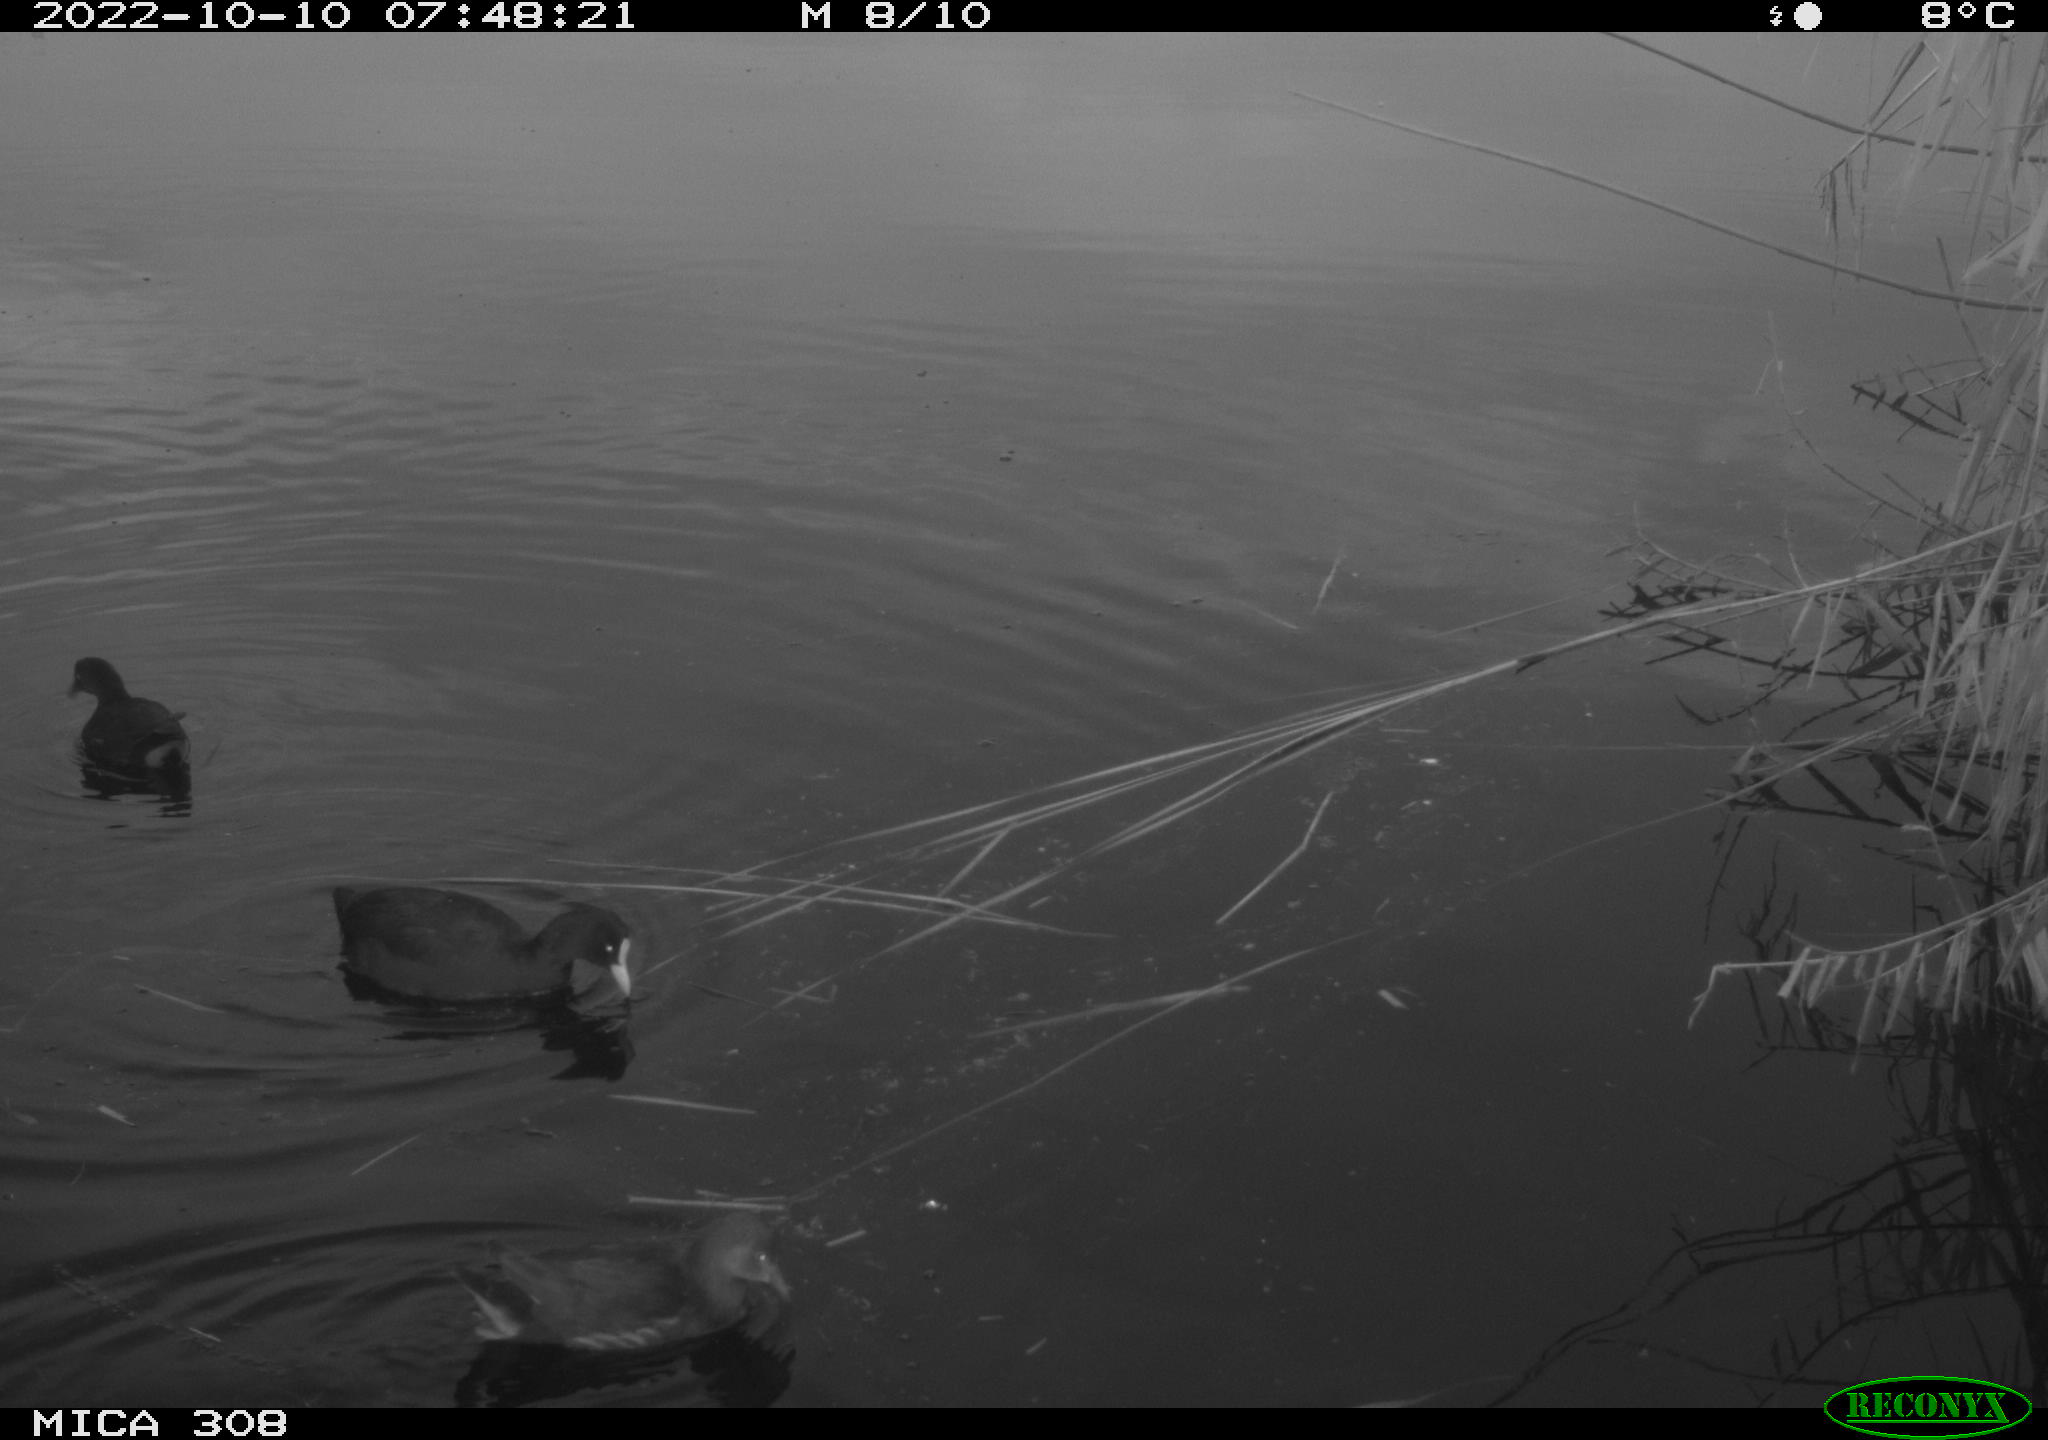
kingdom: Animalia
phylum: Chordata
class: Aves
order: Gruiformes
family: Rallidae
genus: Gallinula
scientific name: Gallinula chloropus
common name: Common moorhen
